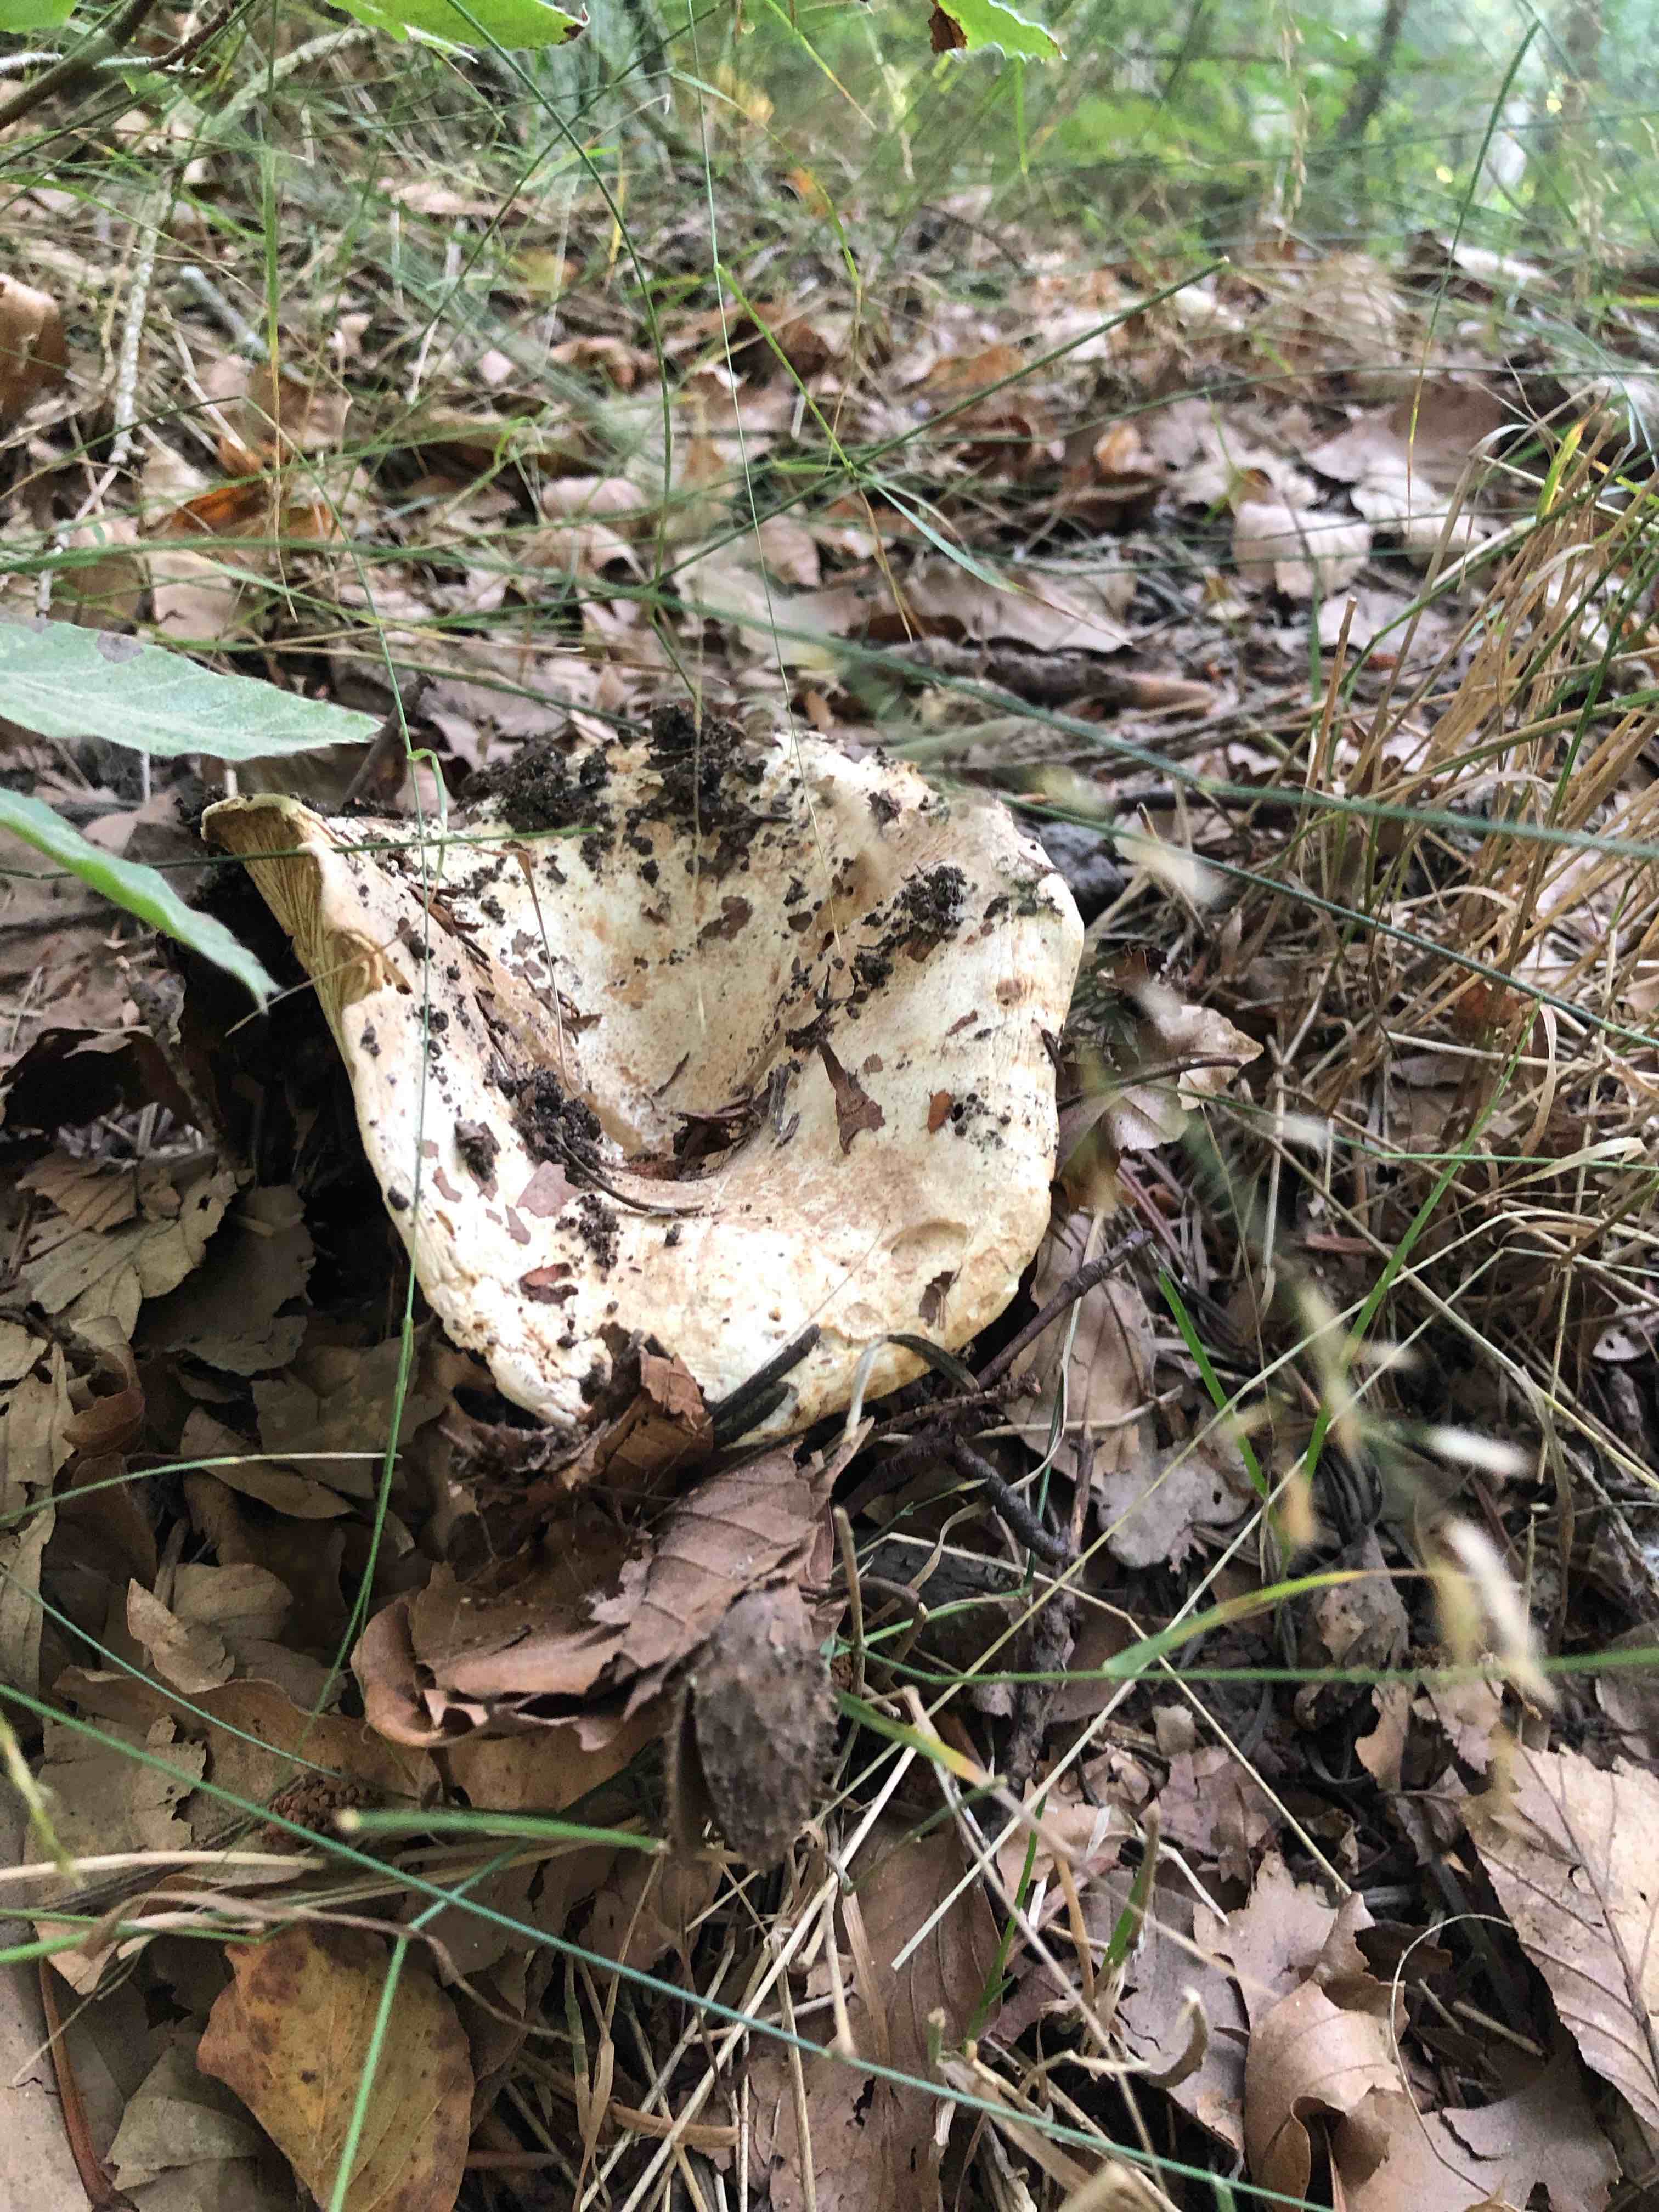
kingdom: Fungi
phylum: Basidiomycota
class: Agaricomycetes
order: Russulales
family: Russulaceae
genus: Russula
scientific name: Russula chloroides
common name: grønhalset tragt-skørhat
